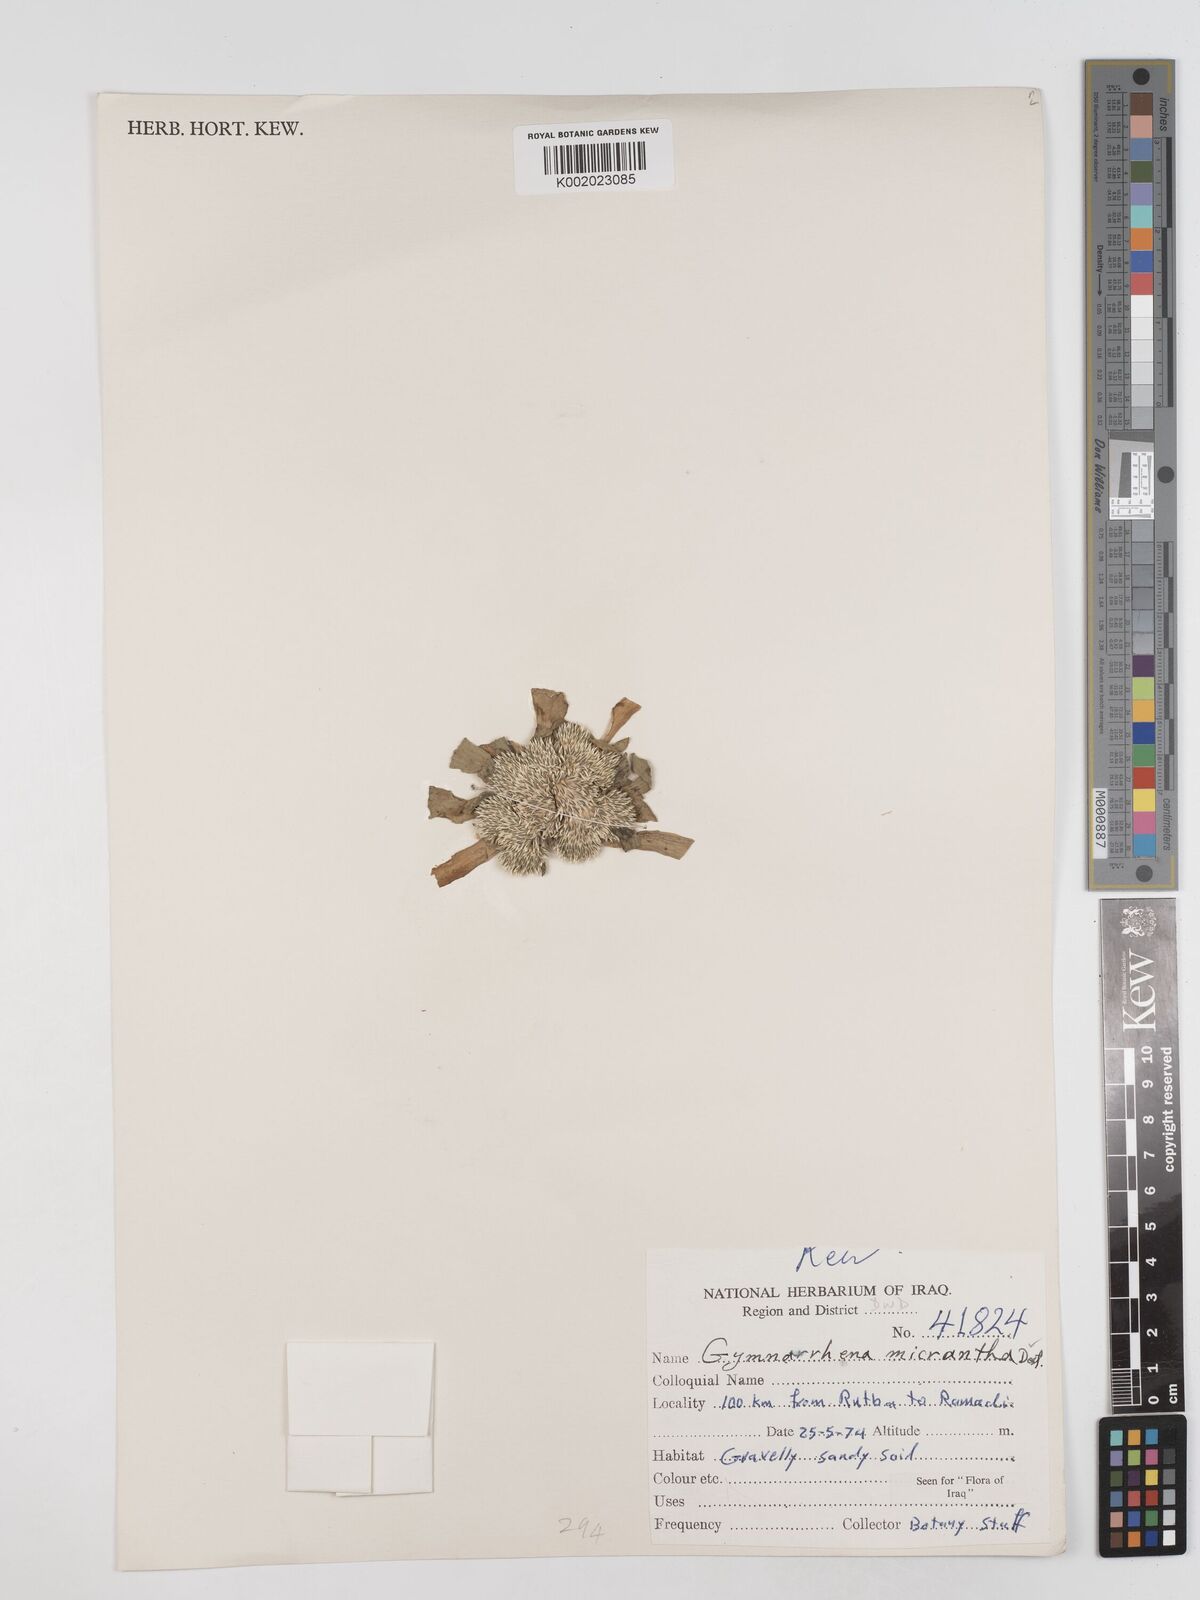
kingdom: Plantae
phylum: Tracheophyta
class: Magnoliopsida
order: Asterales
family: Asteraceae
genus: Gymnarrhena
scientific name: Gymnarrhena micrantha
